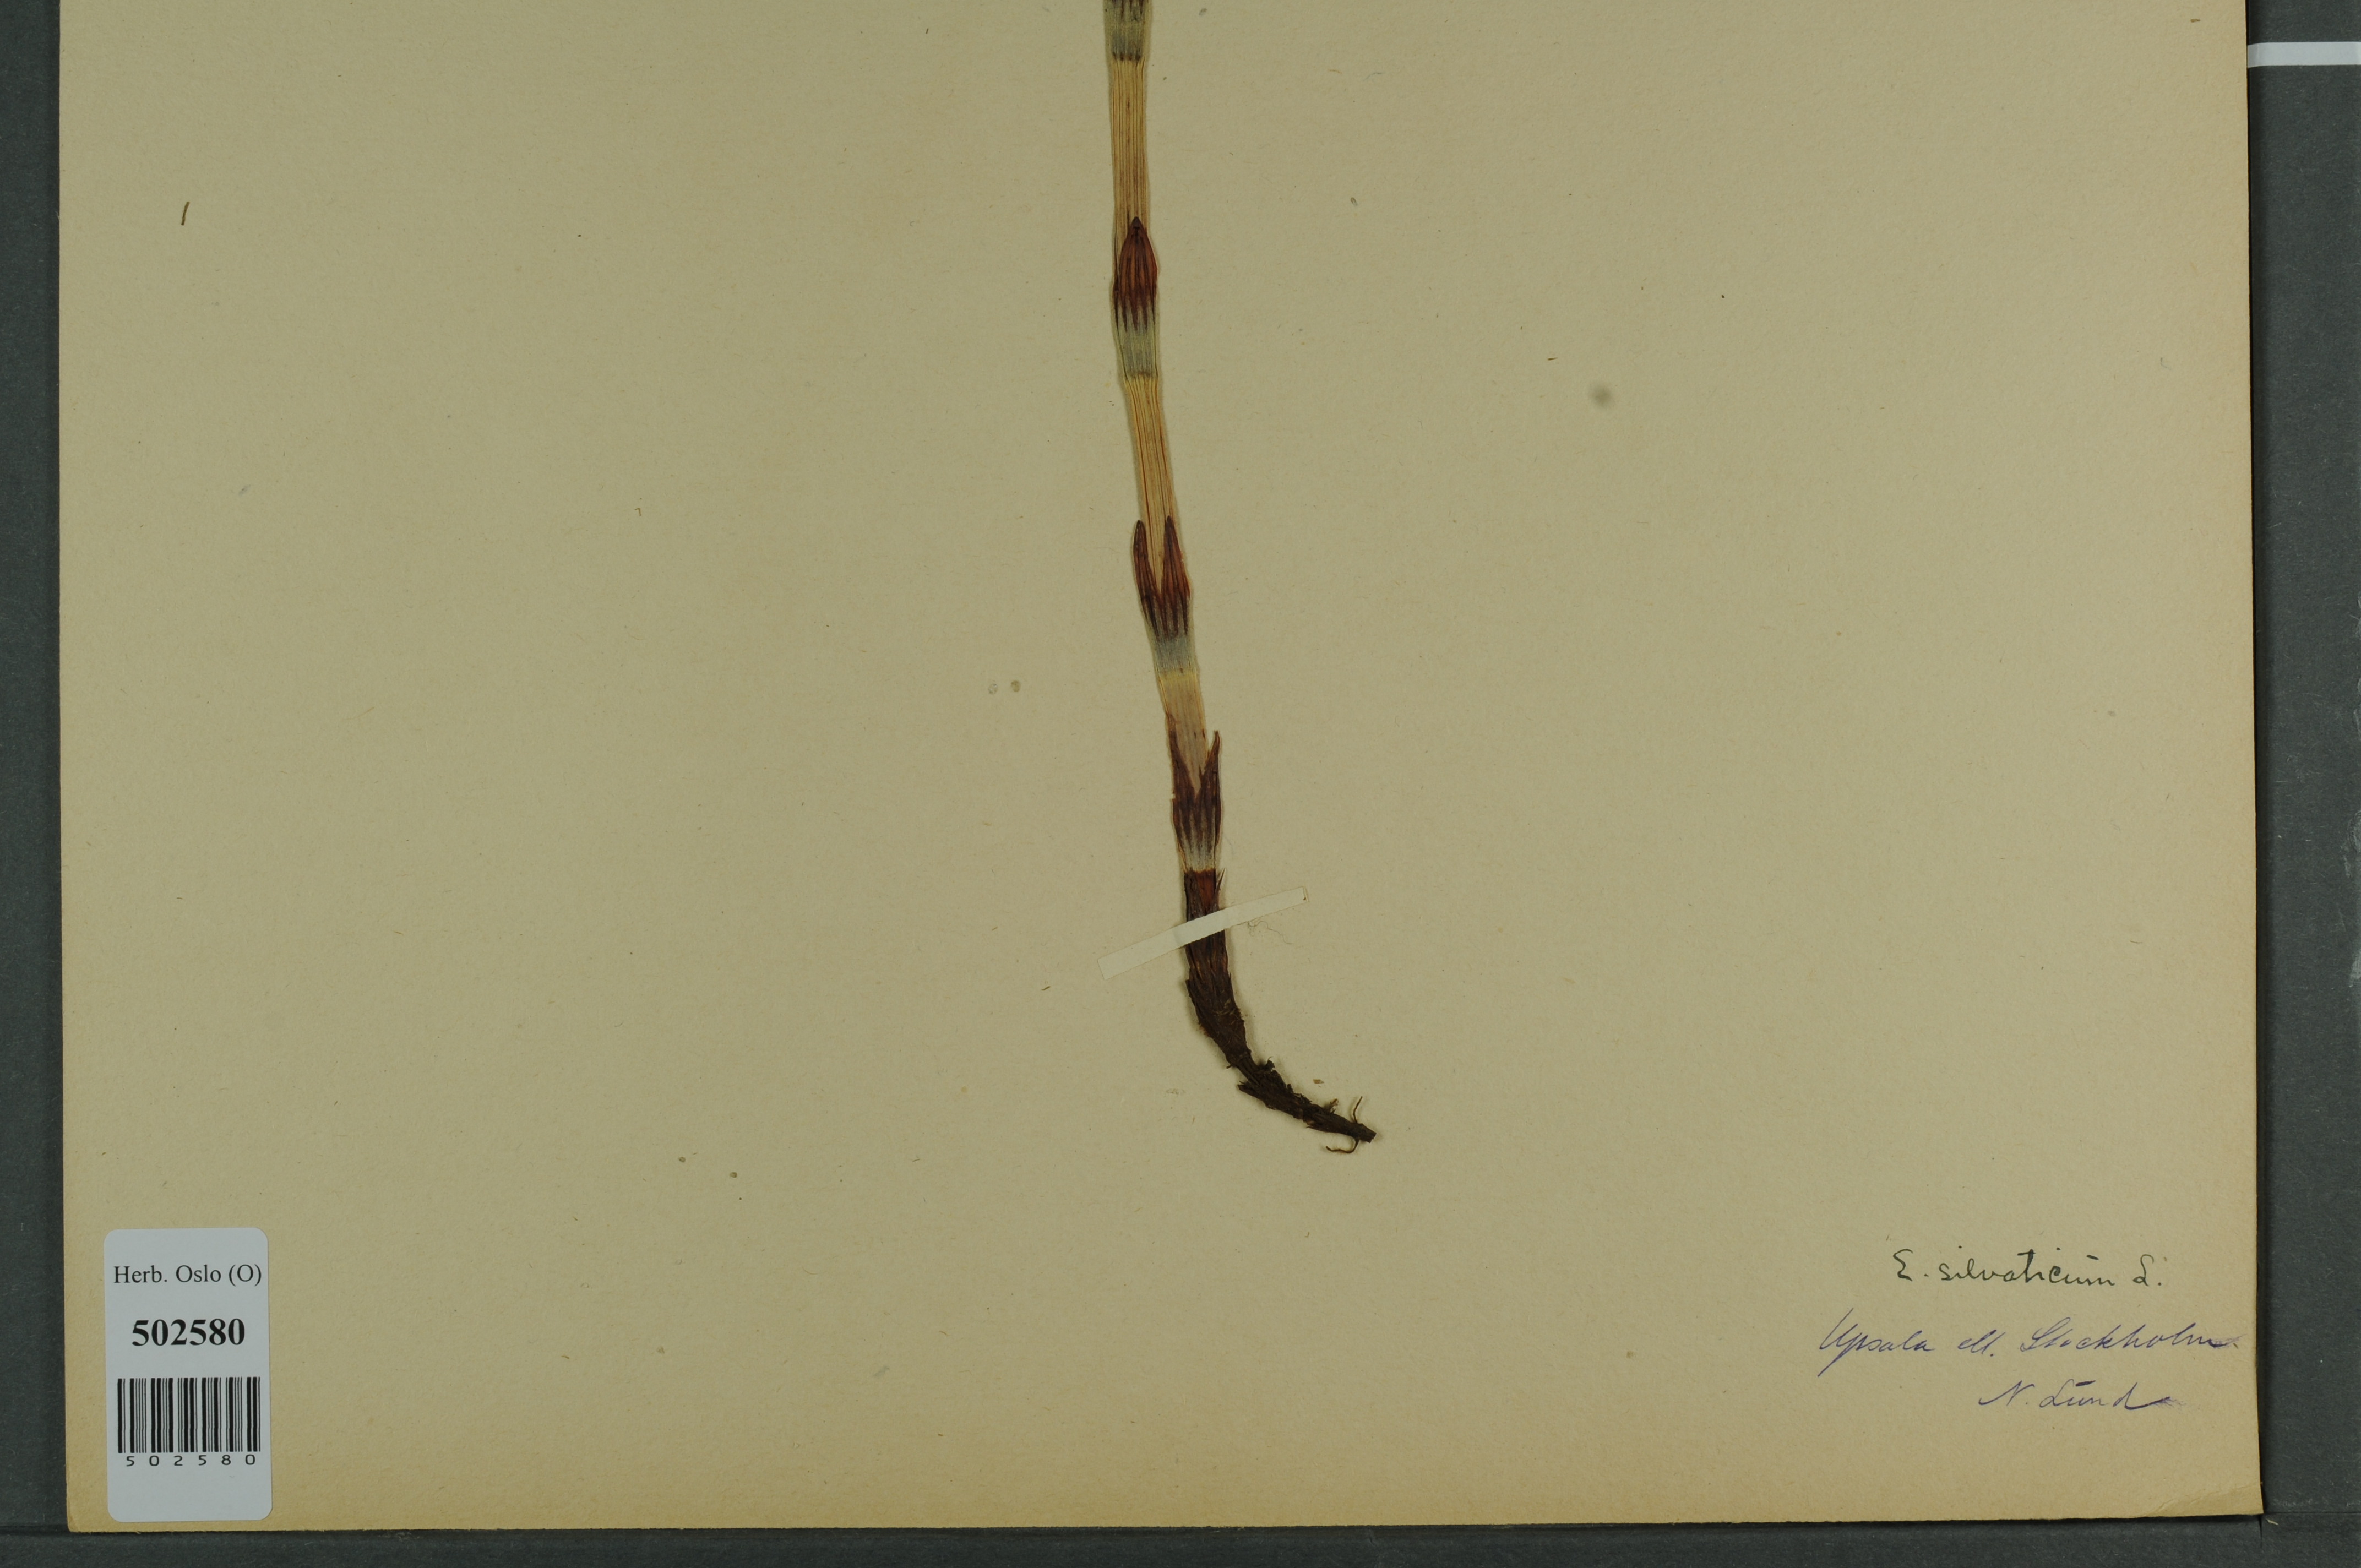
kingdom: Plantae
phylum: Tracheophyta
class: Polypodiopsida
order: Equisetales
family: Equisetaceae
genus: Equisetum
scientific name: Equisetum sylvaticum
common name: Wood horsetail
